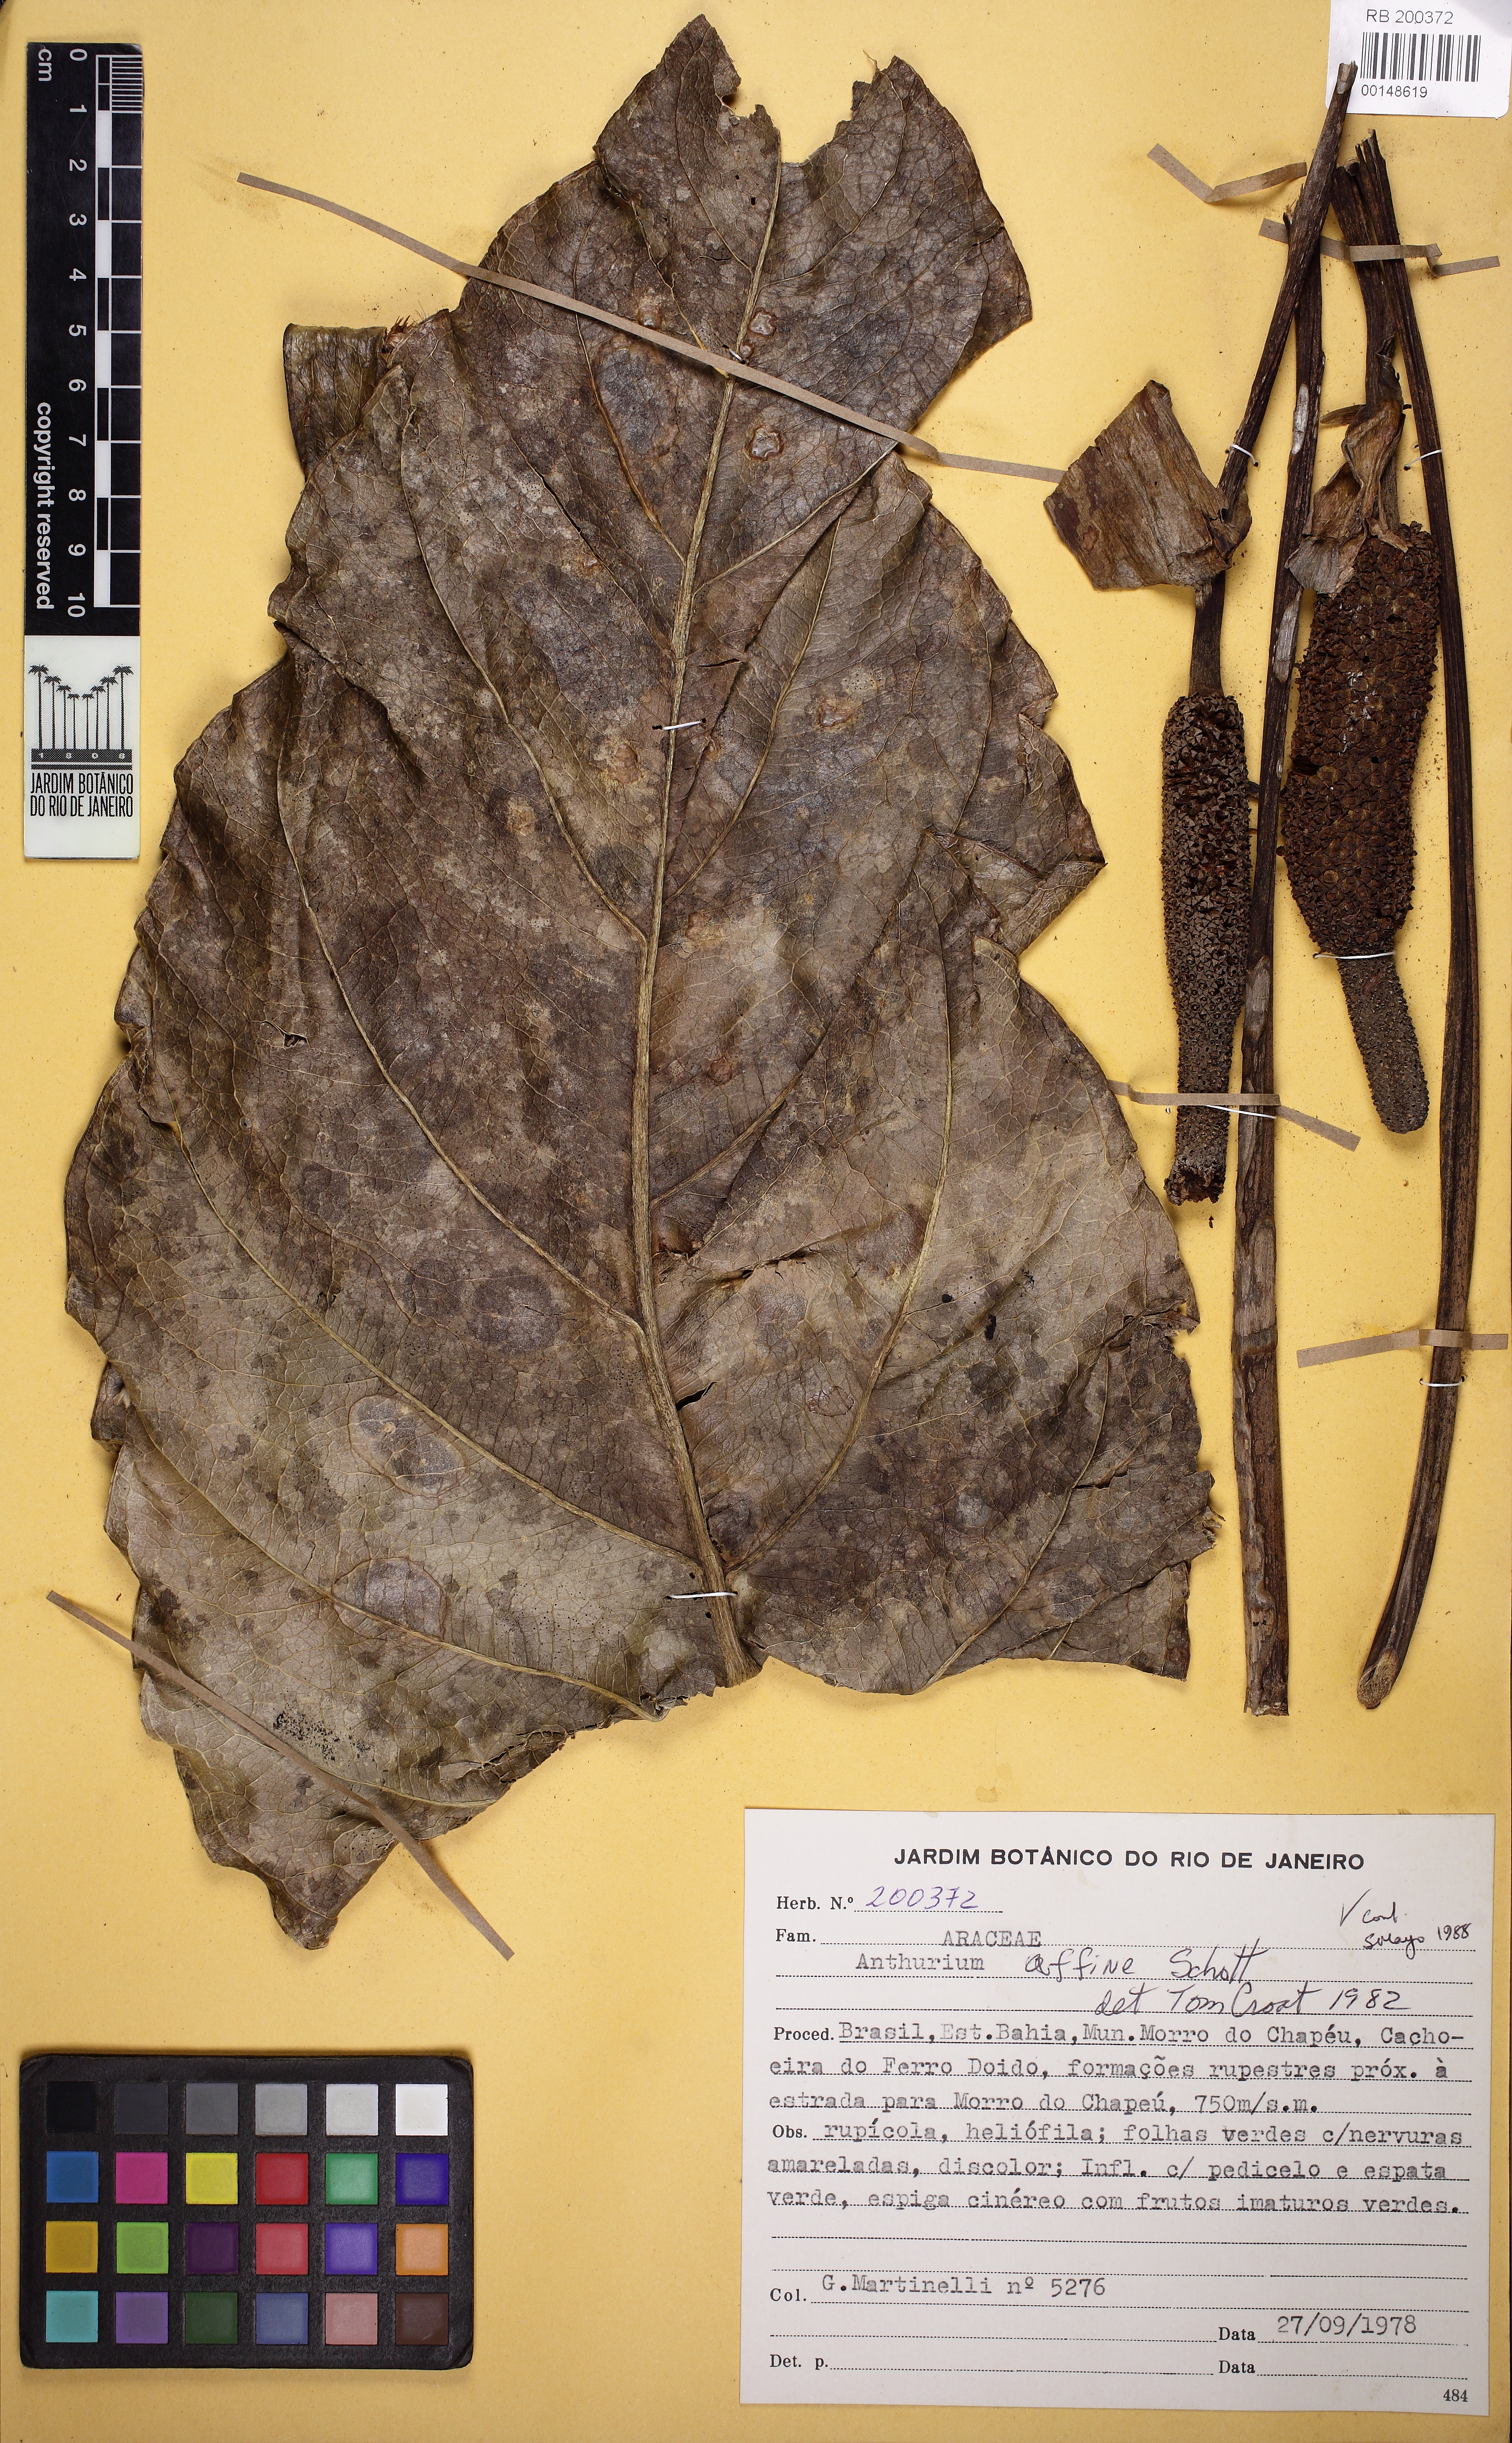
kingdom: Plantae
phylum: Tracheophyta
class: Liliopsida
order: Alismatales
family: Araceae
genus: Anthurium
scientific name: Anthurium affine
